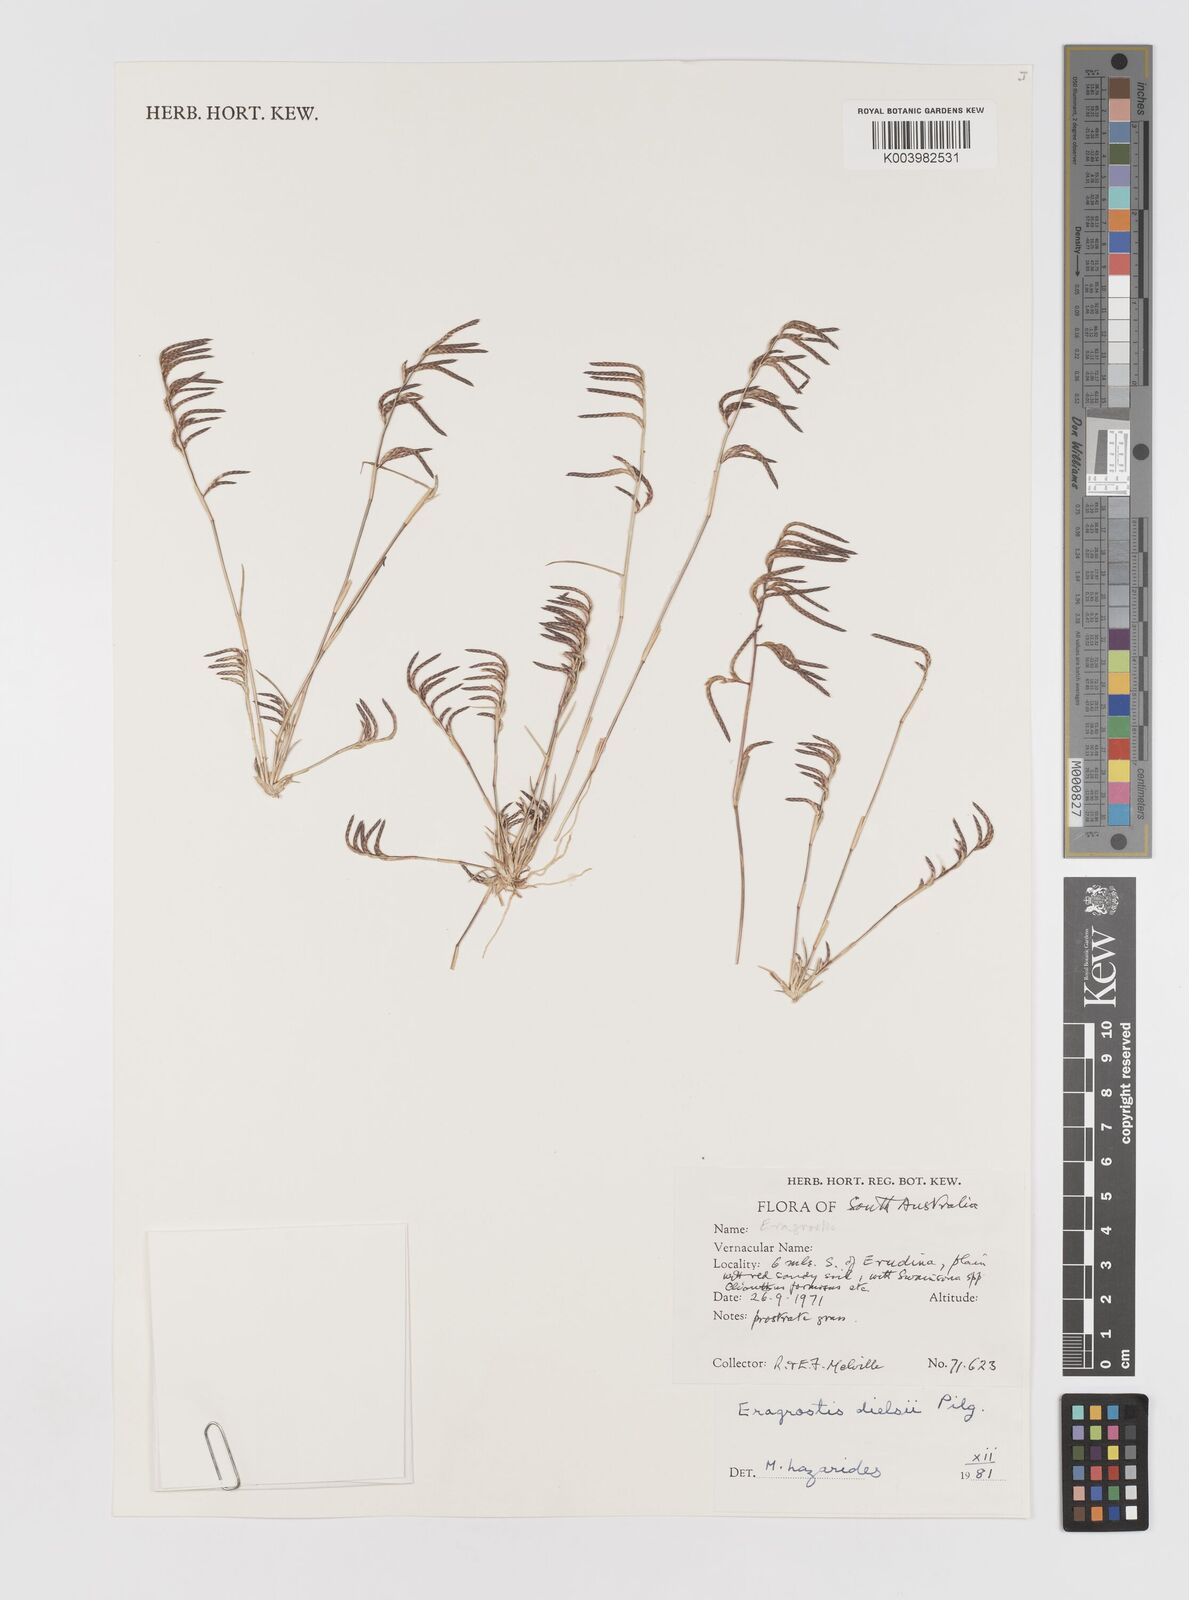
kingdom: Plantae
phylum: Tracheophyta
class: Liliopsida
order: Poales
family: Poaceae
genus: Eragrostis
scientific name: Eragrostis dielsii
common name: Lovegrass
